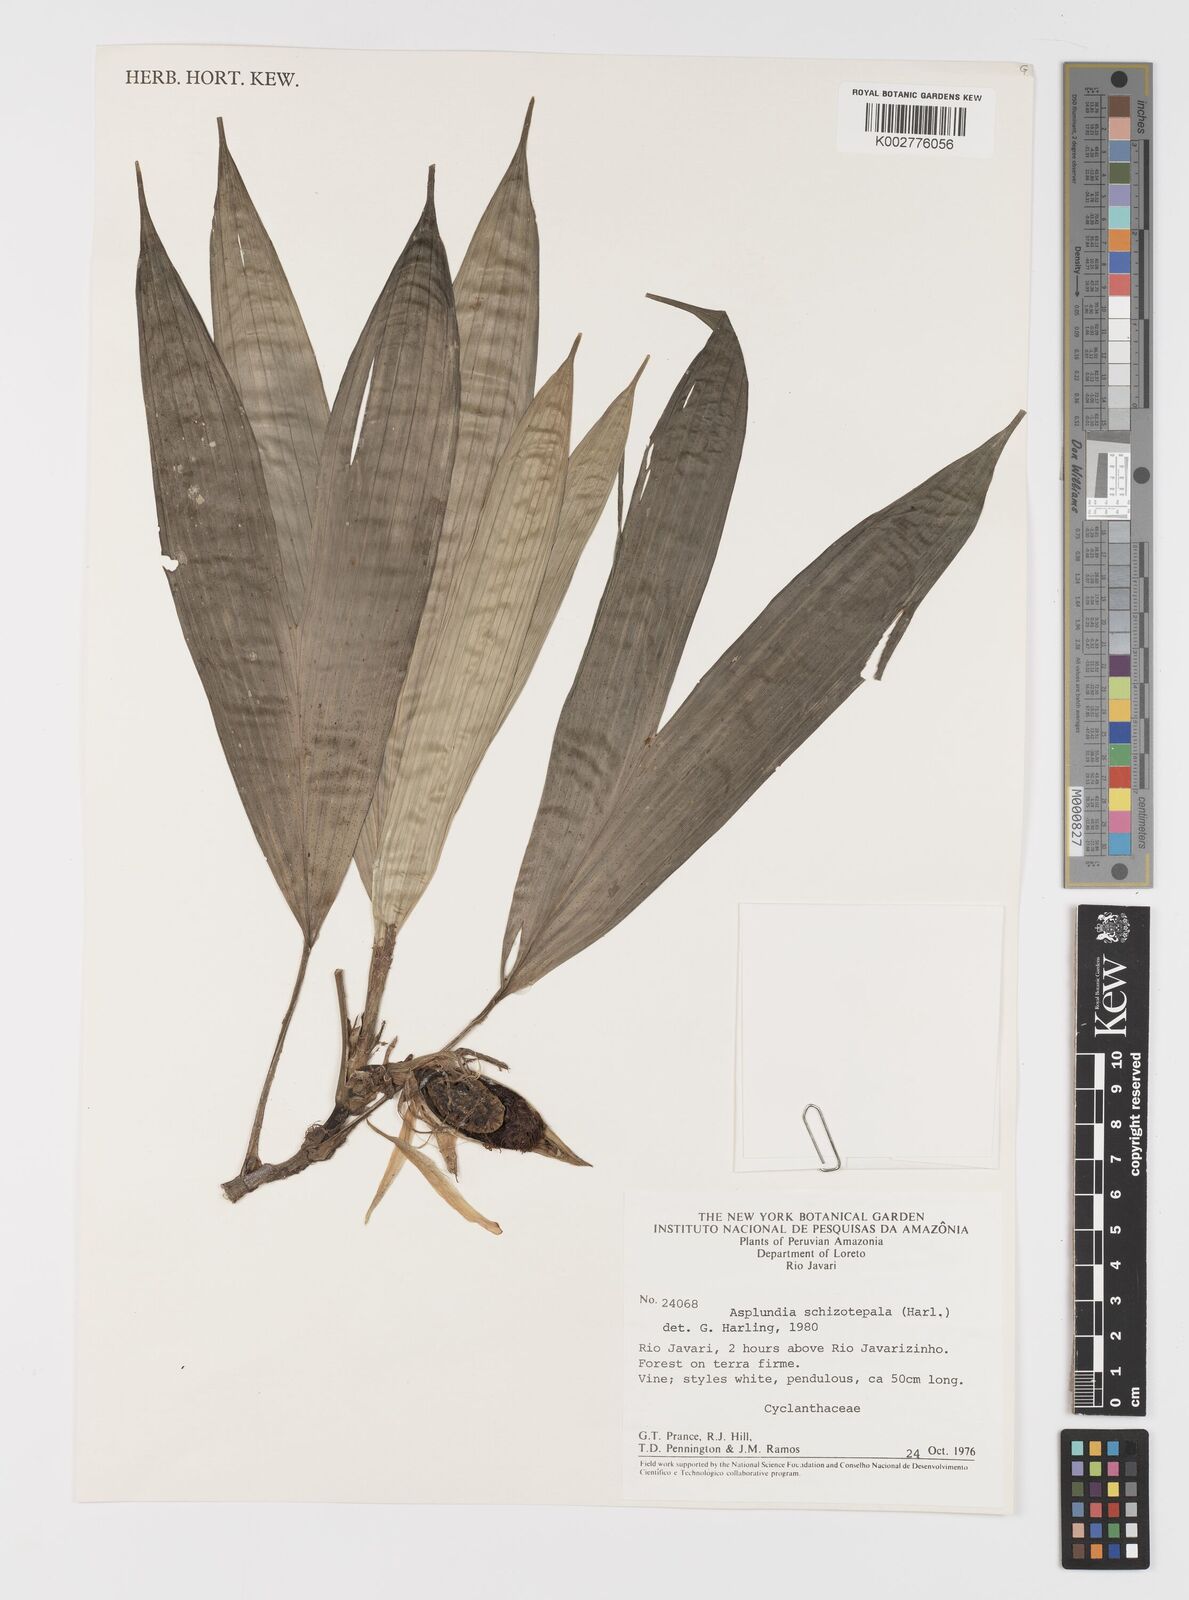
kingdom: Plantae
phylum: Tracheophyta
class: Liliopsida
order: Pandanales
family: Cyclanthaceae
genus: Asplundia
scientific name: Asplundia schizotepala
